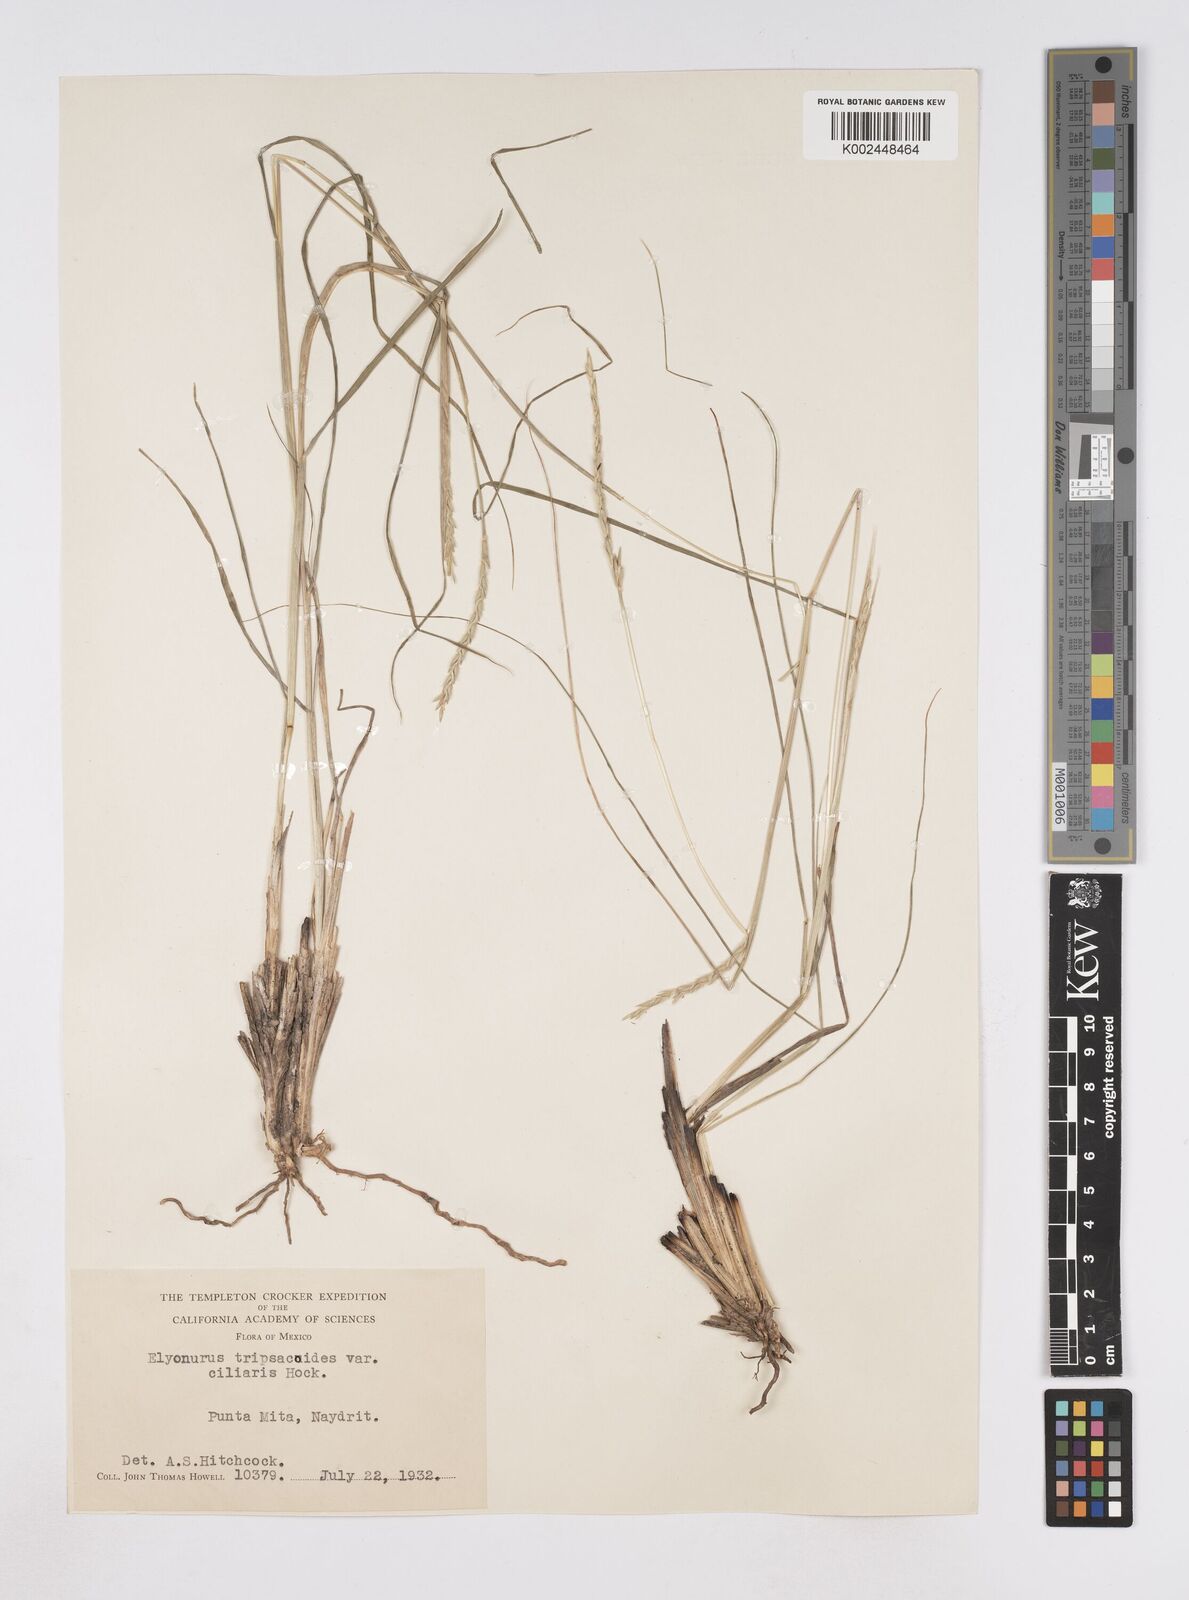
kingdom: Plantae
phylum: Tracheophyta
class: Liliopsida
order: Poales
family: Poaceae
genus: Elionurus
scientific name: Elionurus ciliaris
